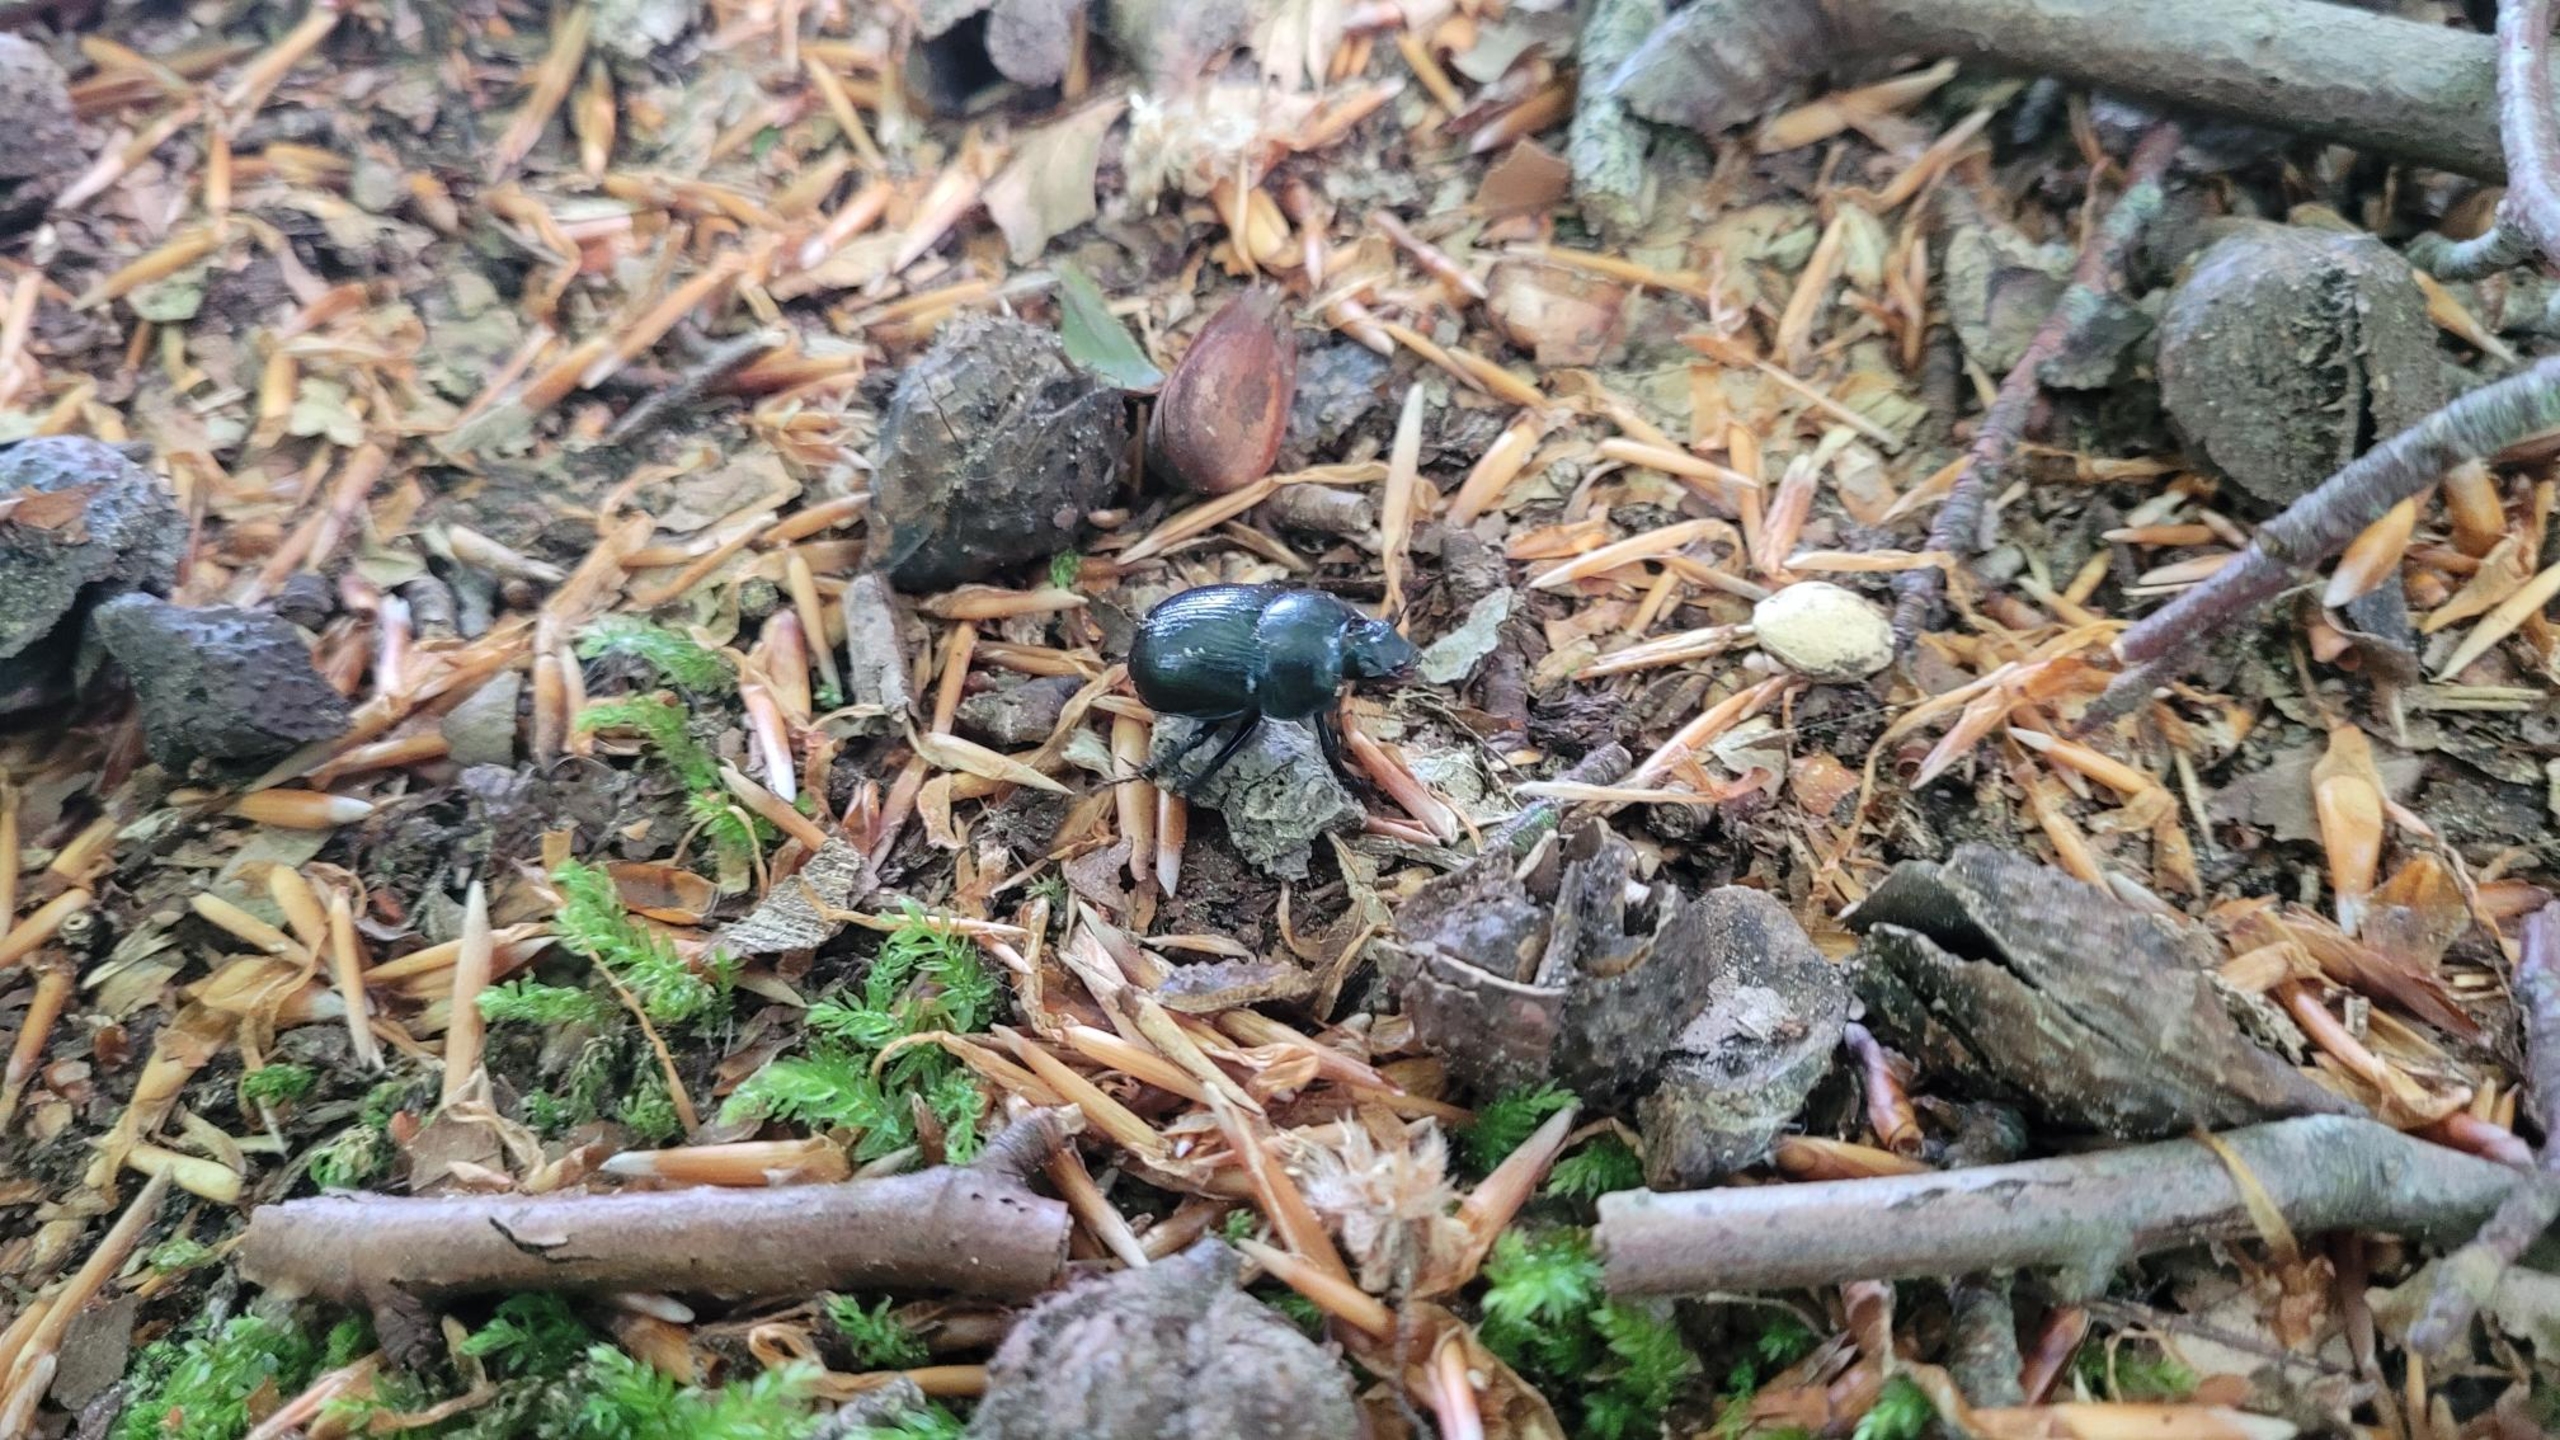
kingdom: Animalia
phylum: Arthropoda
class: Insecta
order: Coleoptera
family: Geotrupidae
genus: Anoplotrupes
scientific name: Anoplotrupes stercorosus
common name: Skovskarnbasse
